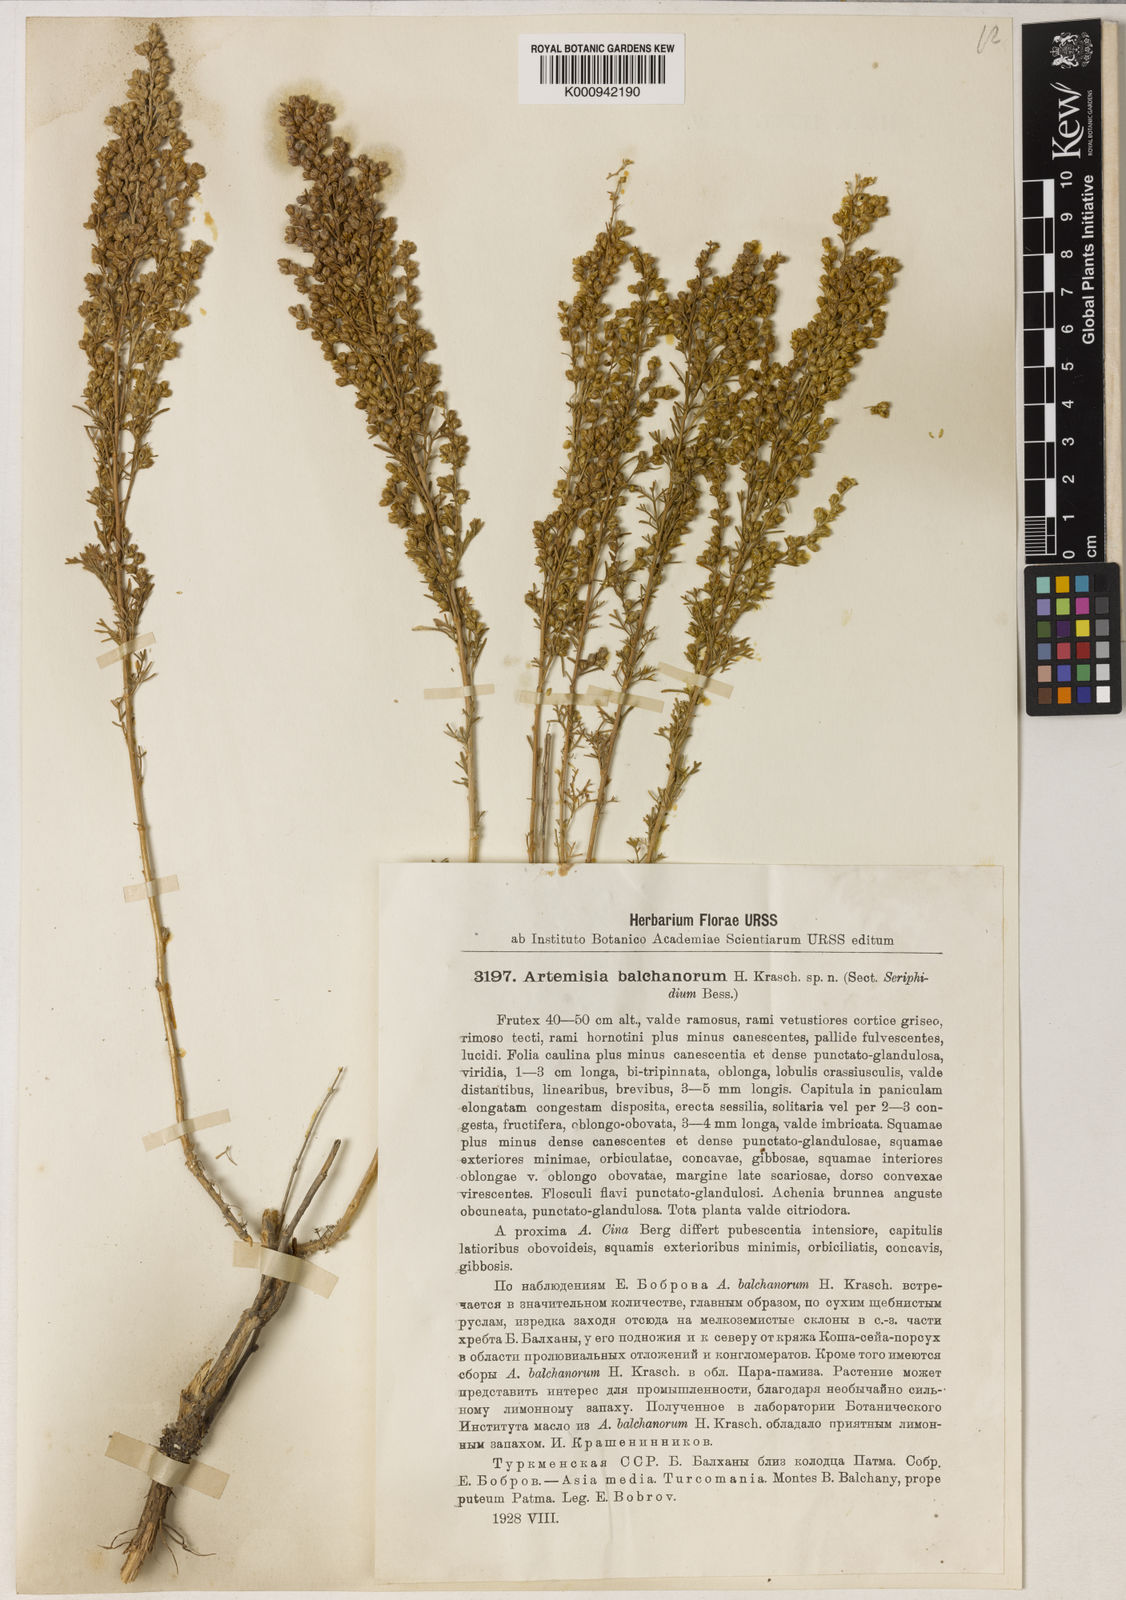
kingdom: Plantae
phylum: Tracheophyta
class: Magnoliopsida
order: Asterales
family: Asteraceae
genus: Artemisia
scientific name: Artemisia balchanorum
